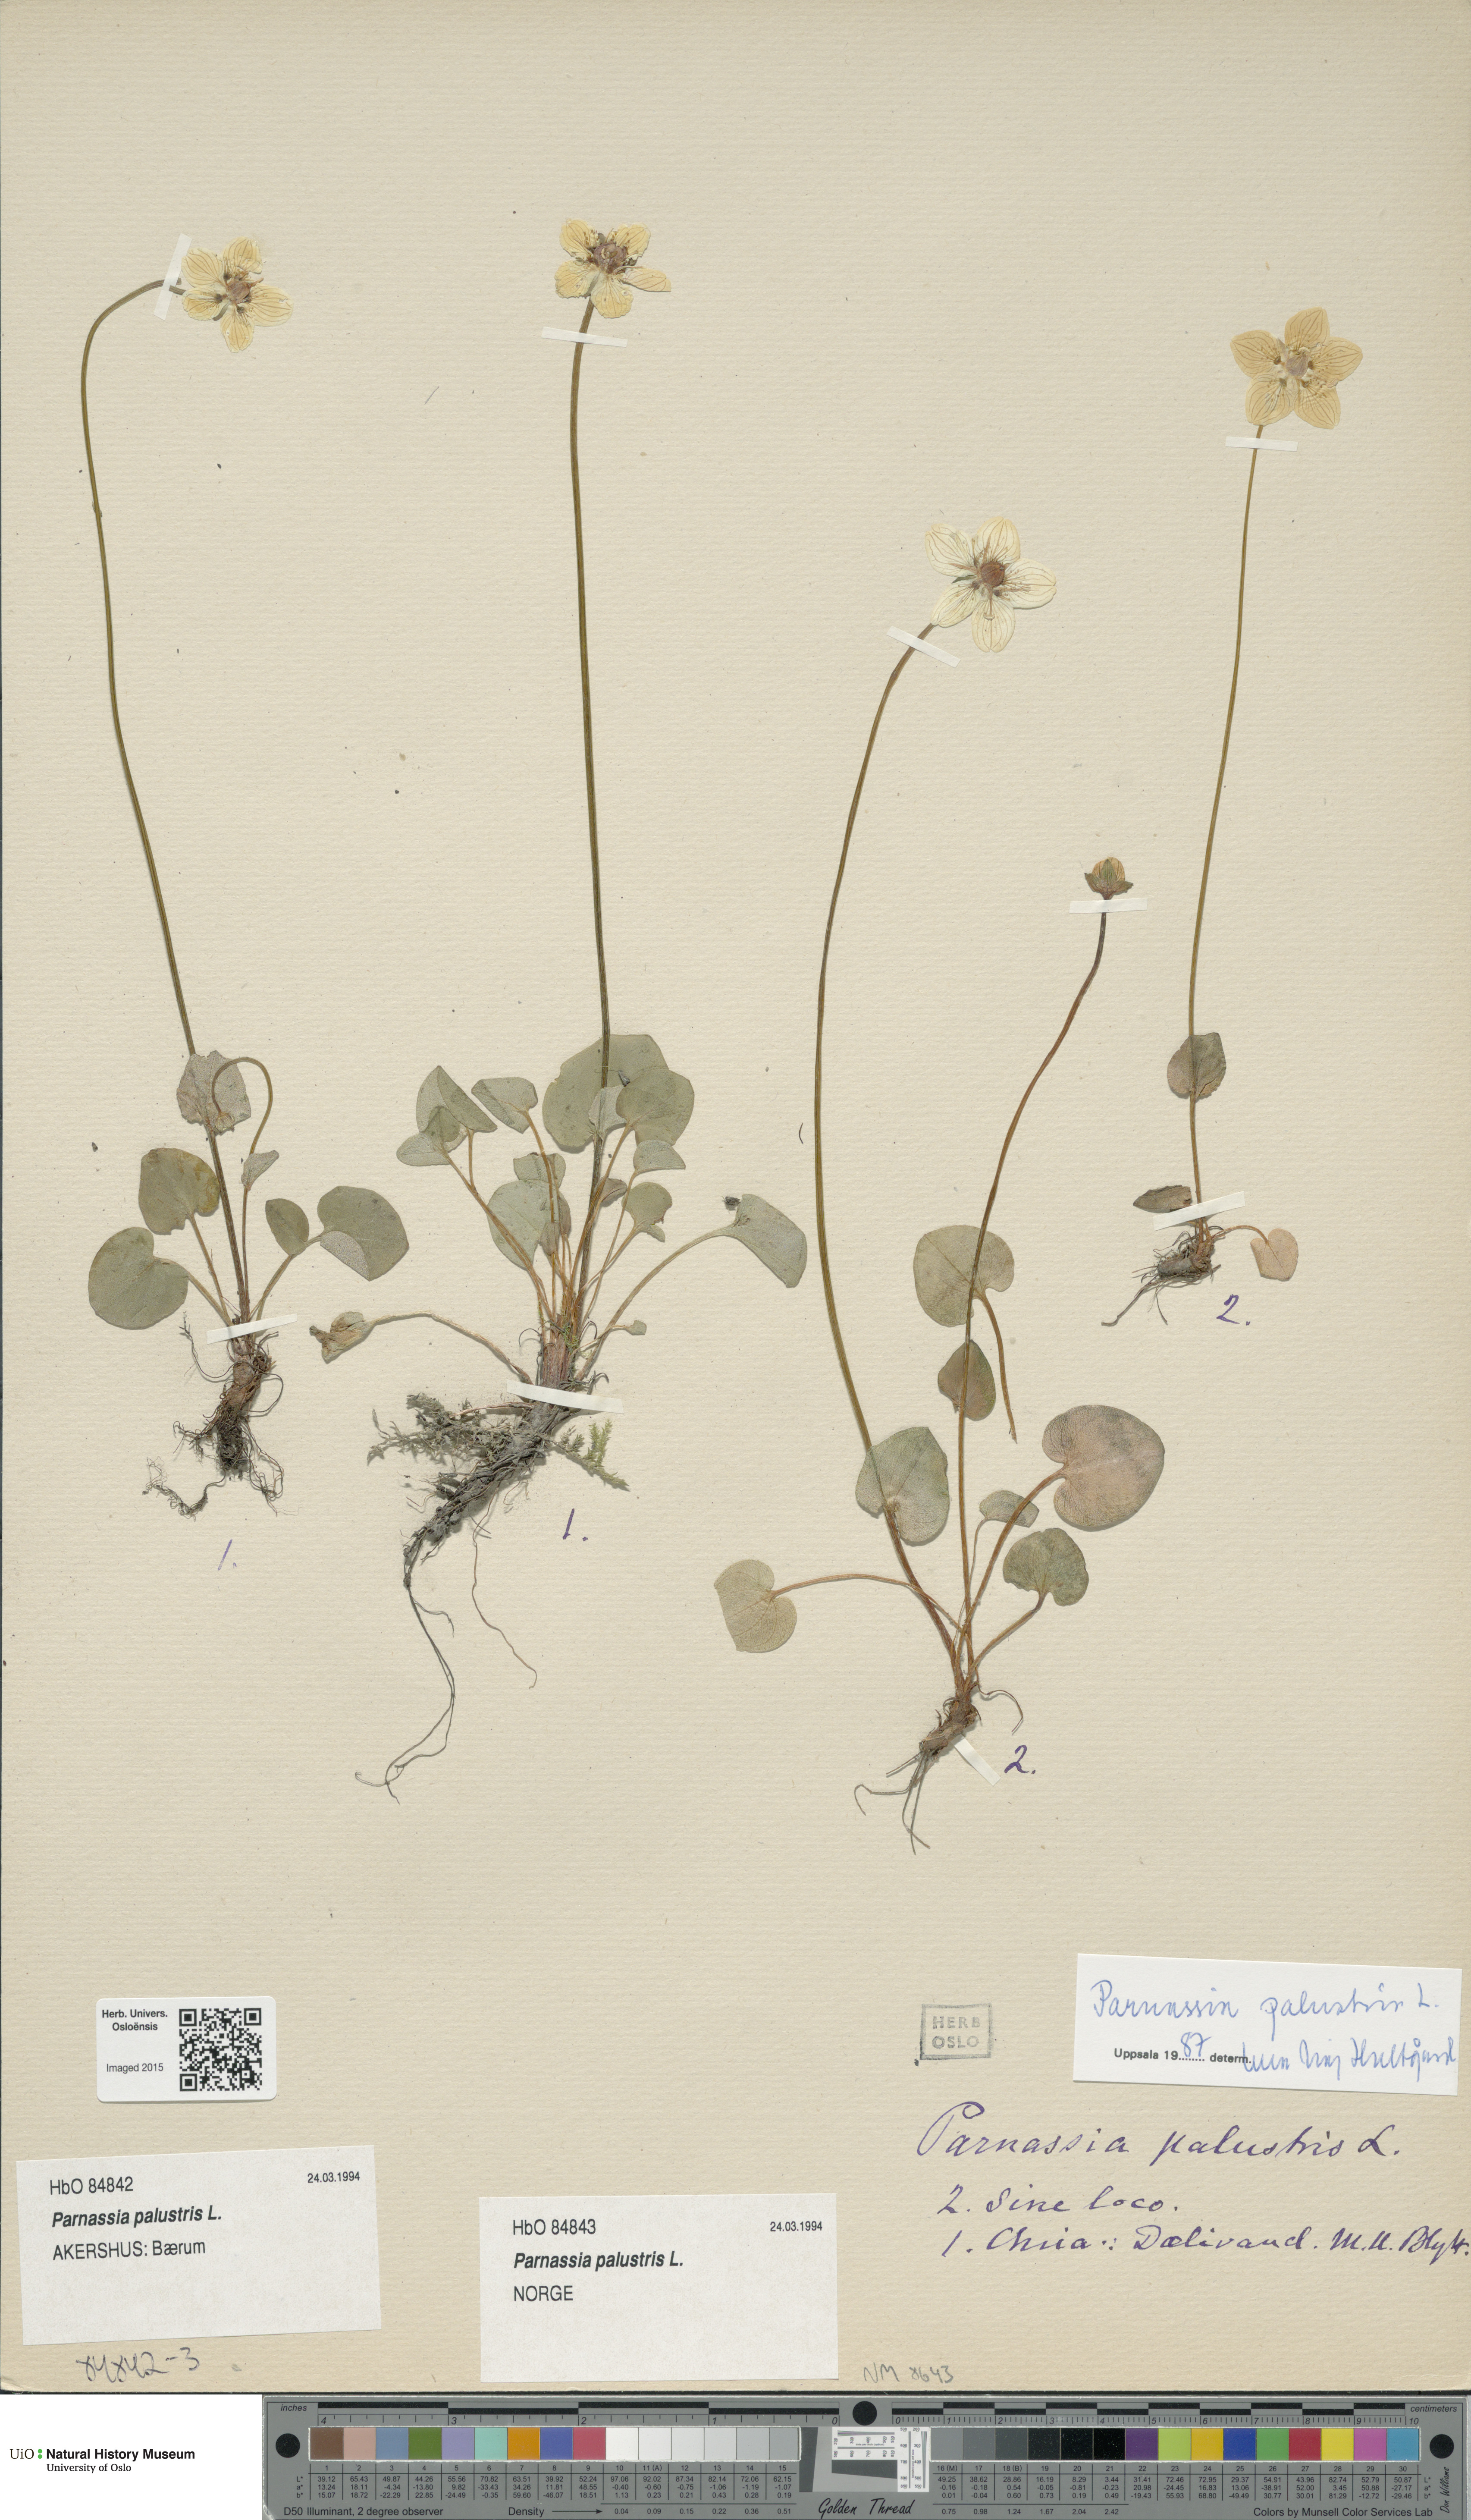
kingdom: Plantae
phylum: Tracheophyta
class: Magnoliopsida
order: Celastrales
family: Parnassiaceae
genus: Parnassia
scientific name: Parnassia palustris
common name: Grass-of-parnassus
